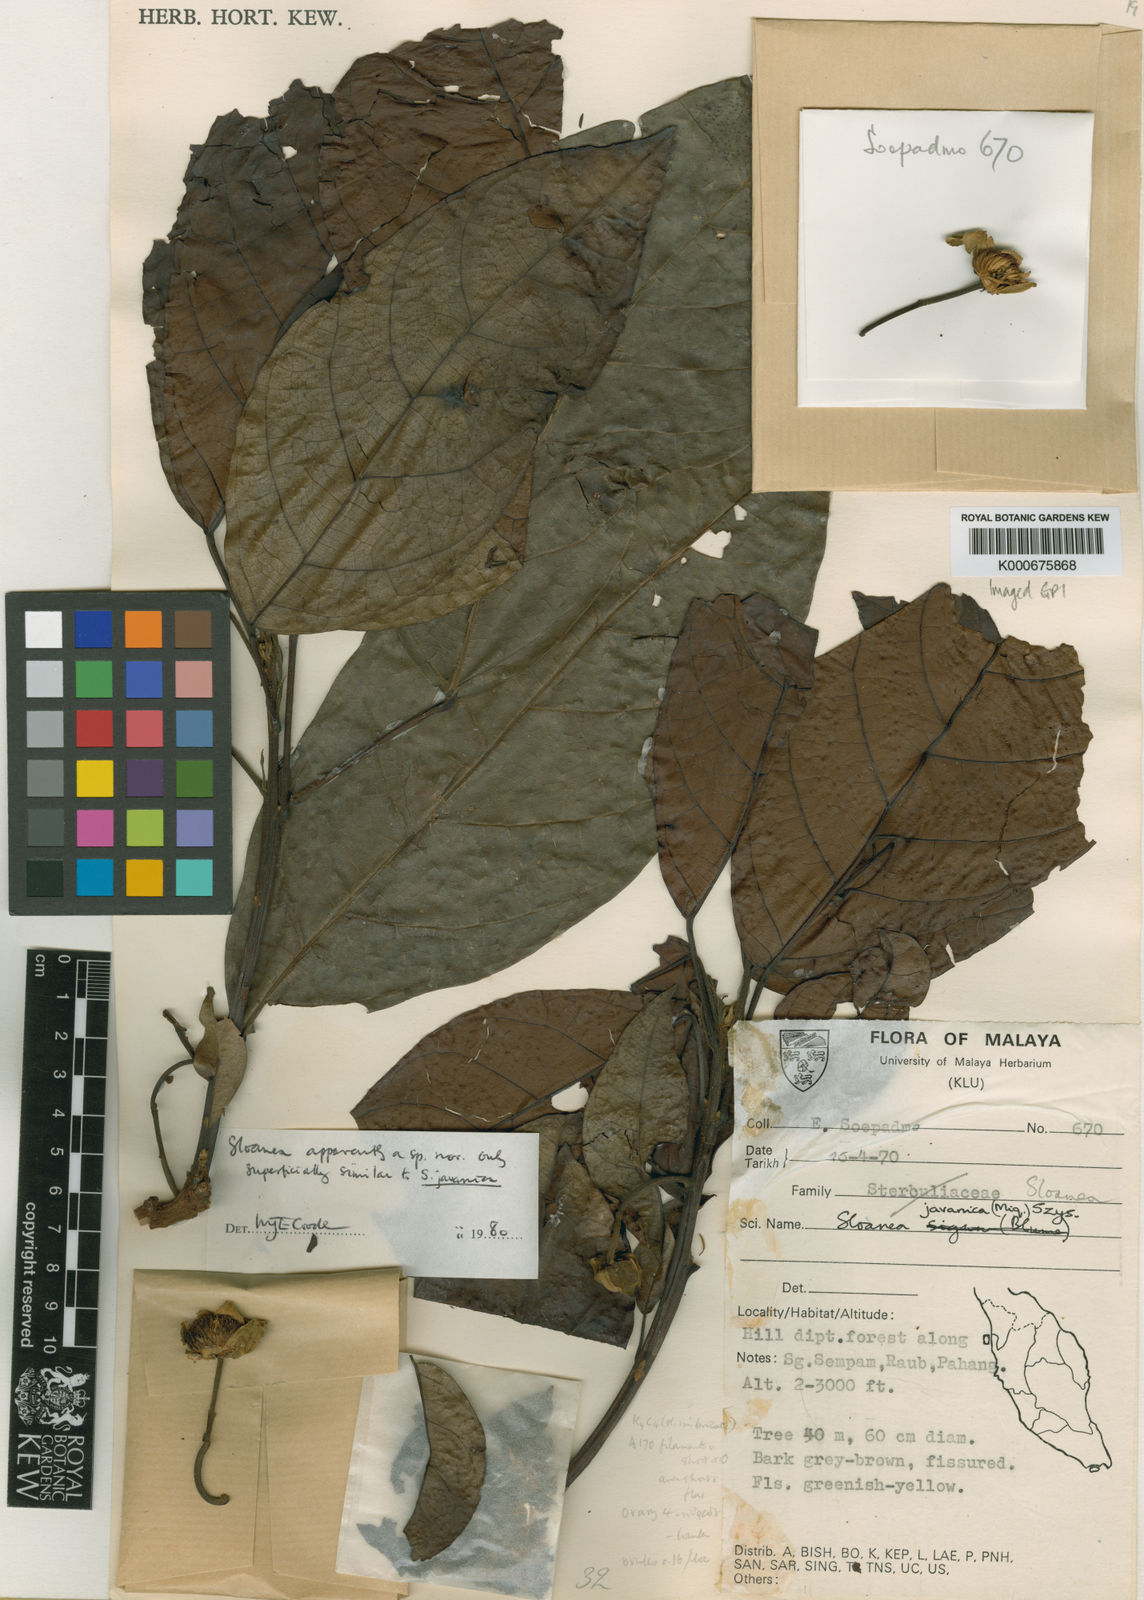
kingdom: Plantae
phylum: Tracheophyta
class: Magnoliopsida
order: Oxalidales
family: Elaeocarpaceae
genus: Sloanea
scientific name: Sloanea malayana
